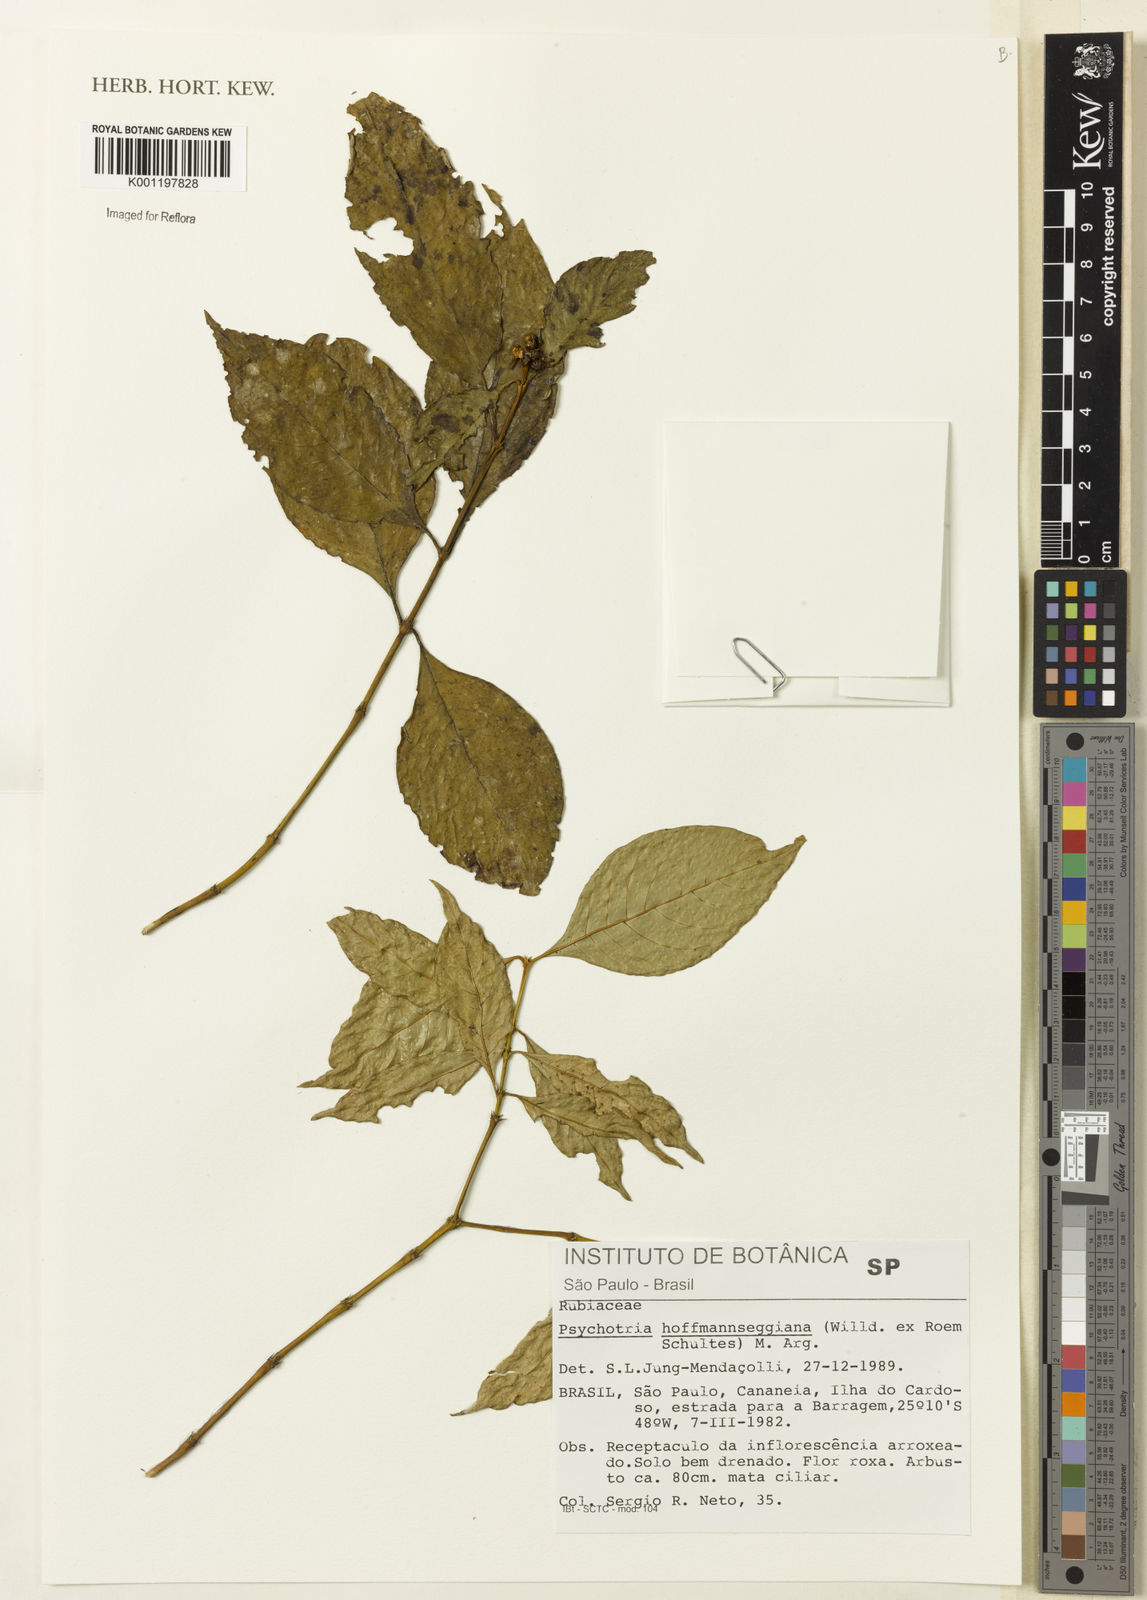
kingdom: Plantae
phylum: Tracheophyta
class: Magnoliopsida
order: Gentianales
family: Rubiaceae
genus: Psychotria
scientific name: Psychotria
